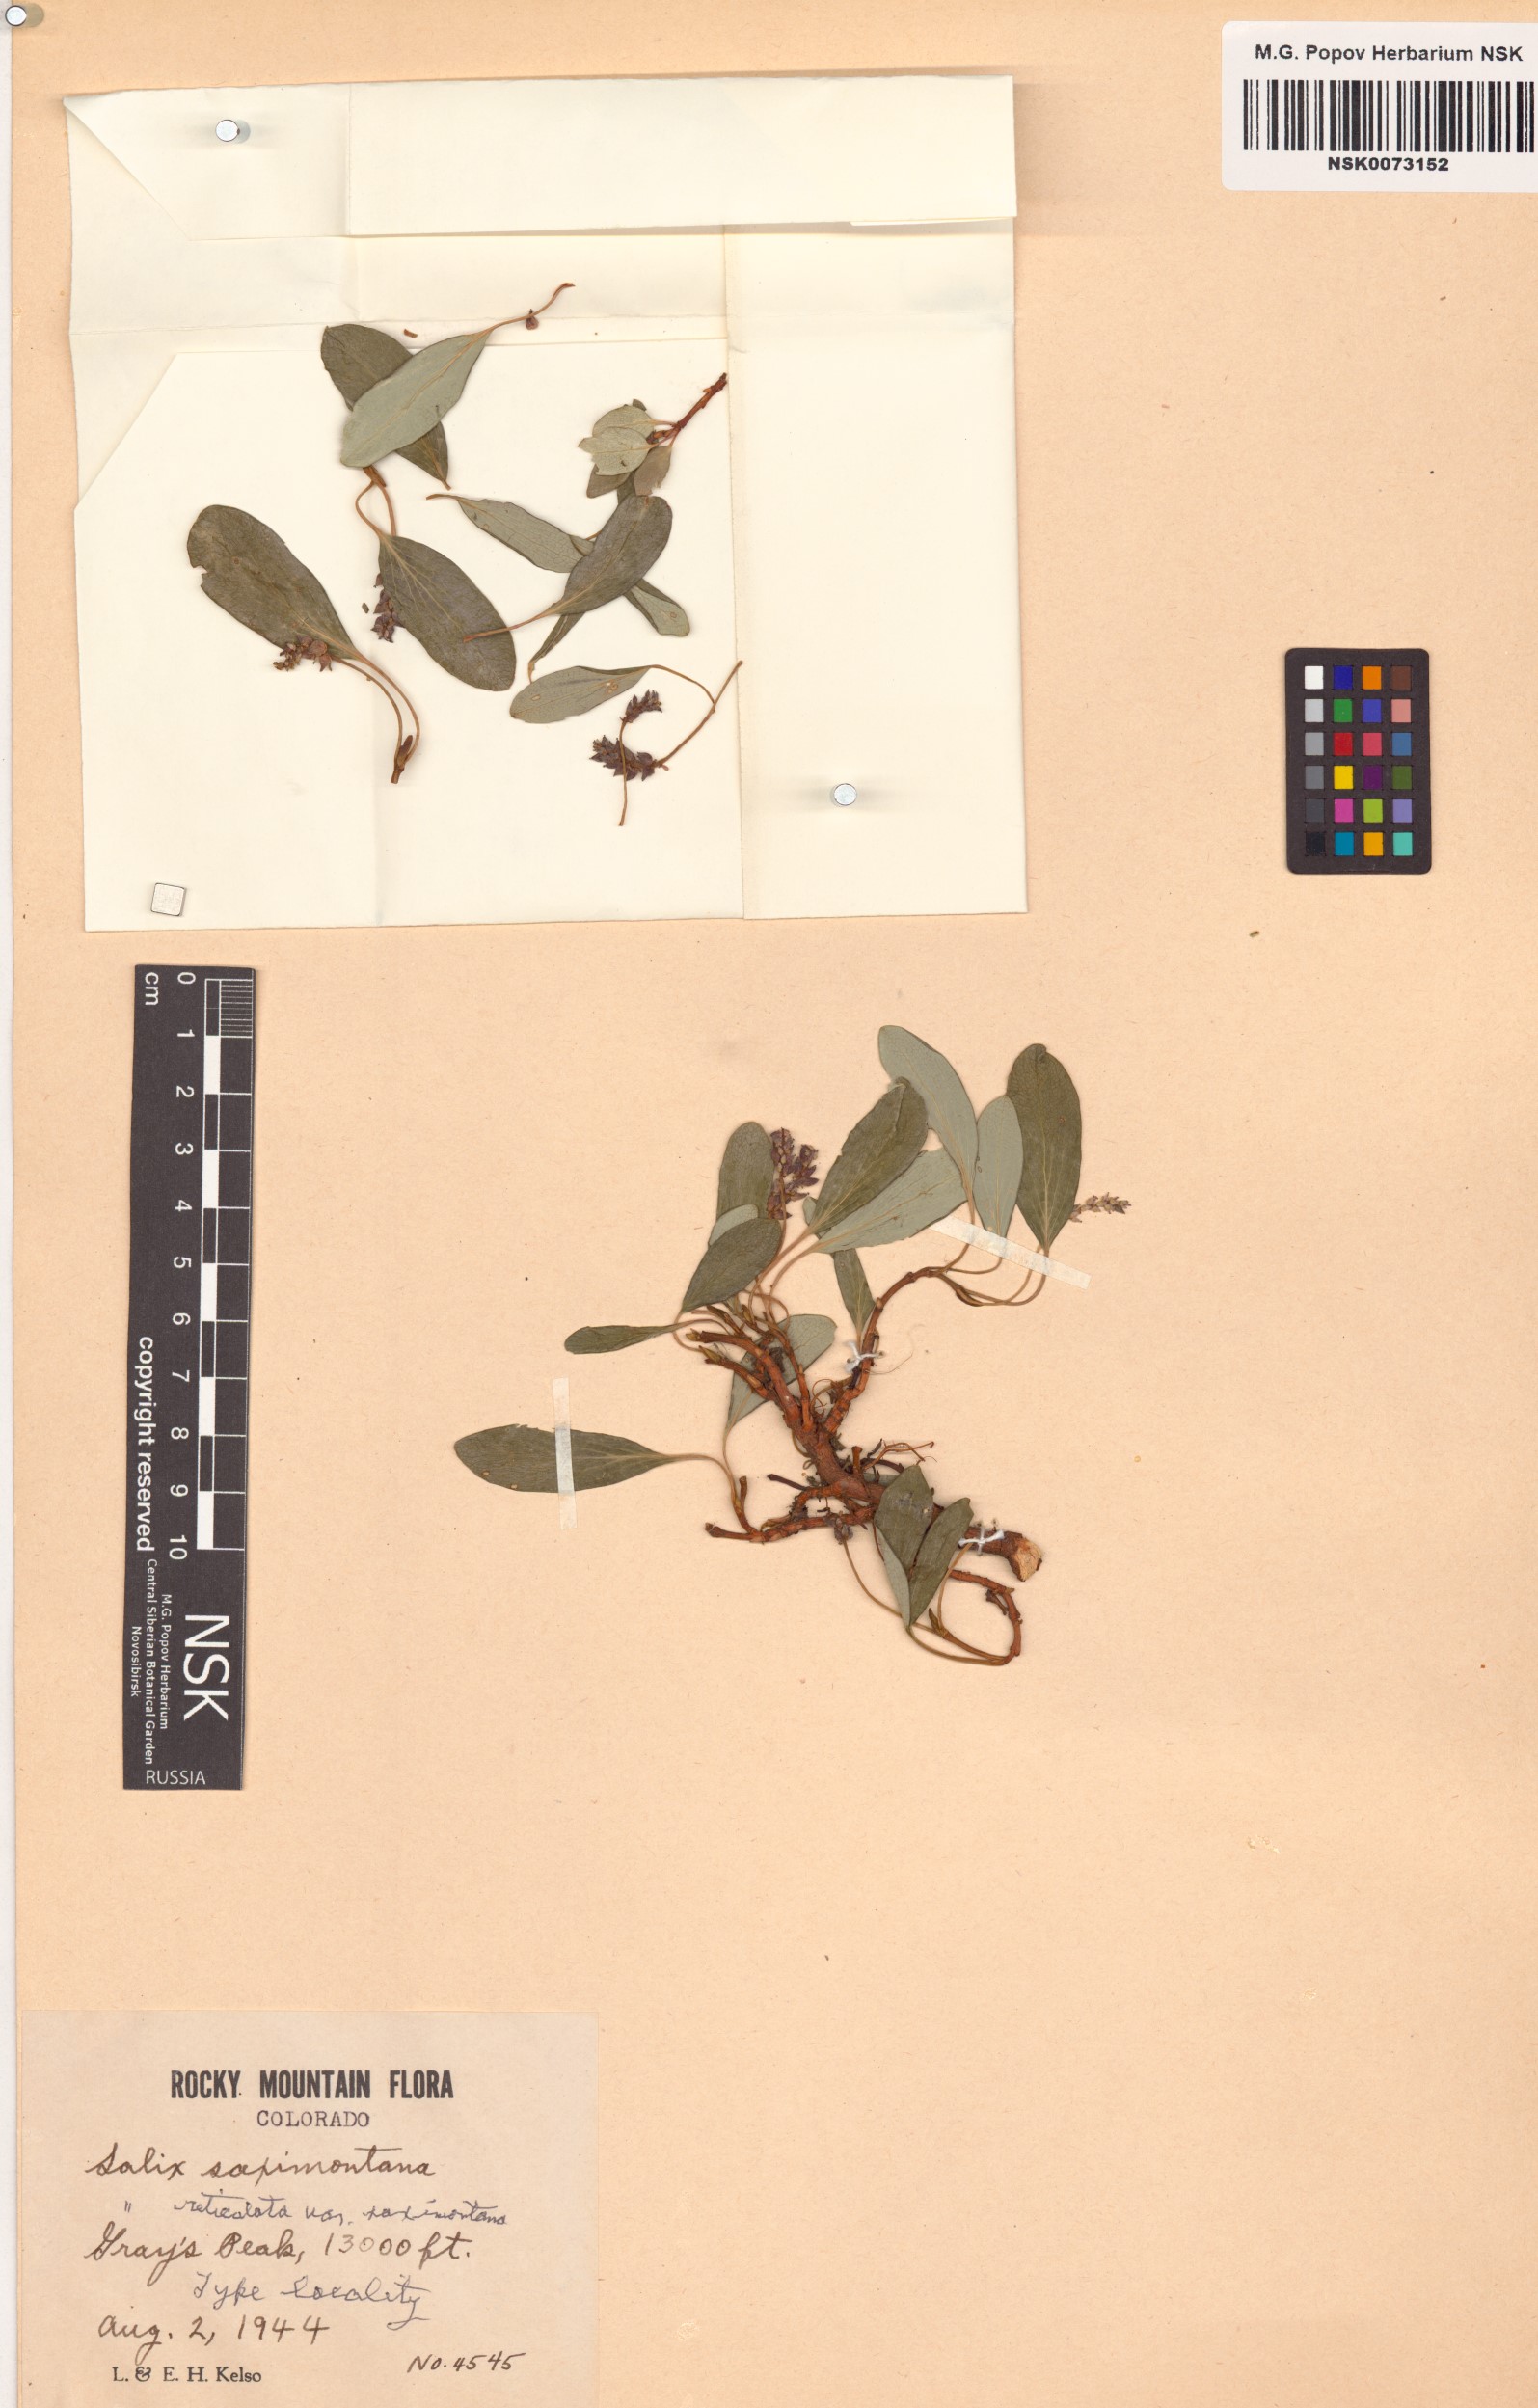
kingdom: Plantae
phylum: Tracheophyta
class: Magnoliopsida
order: Malpighiales
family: Salicaceae
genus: Salix
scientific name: Salix nivalis
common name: Dwarf snow willow
